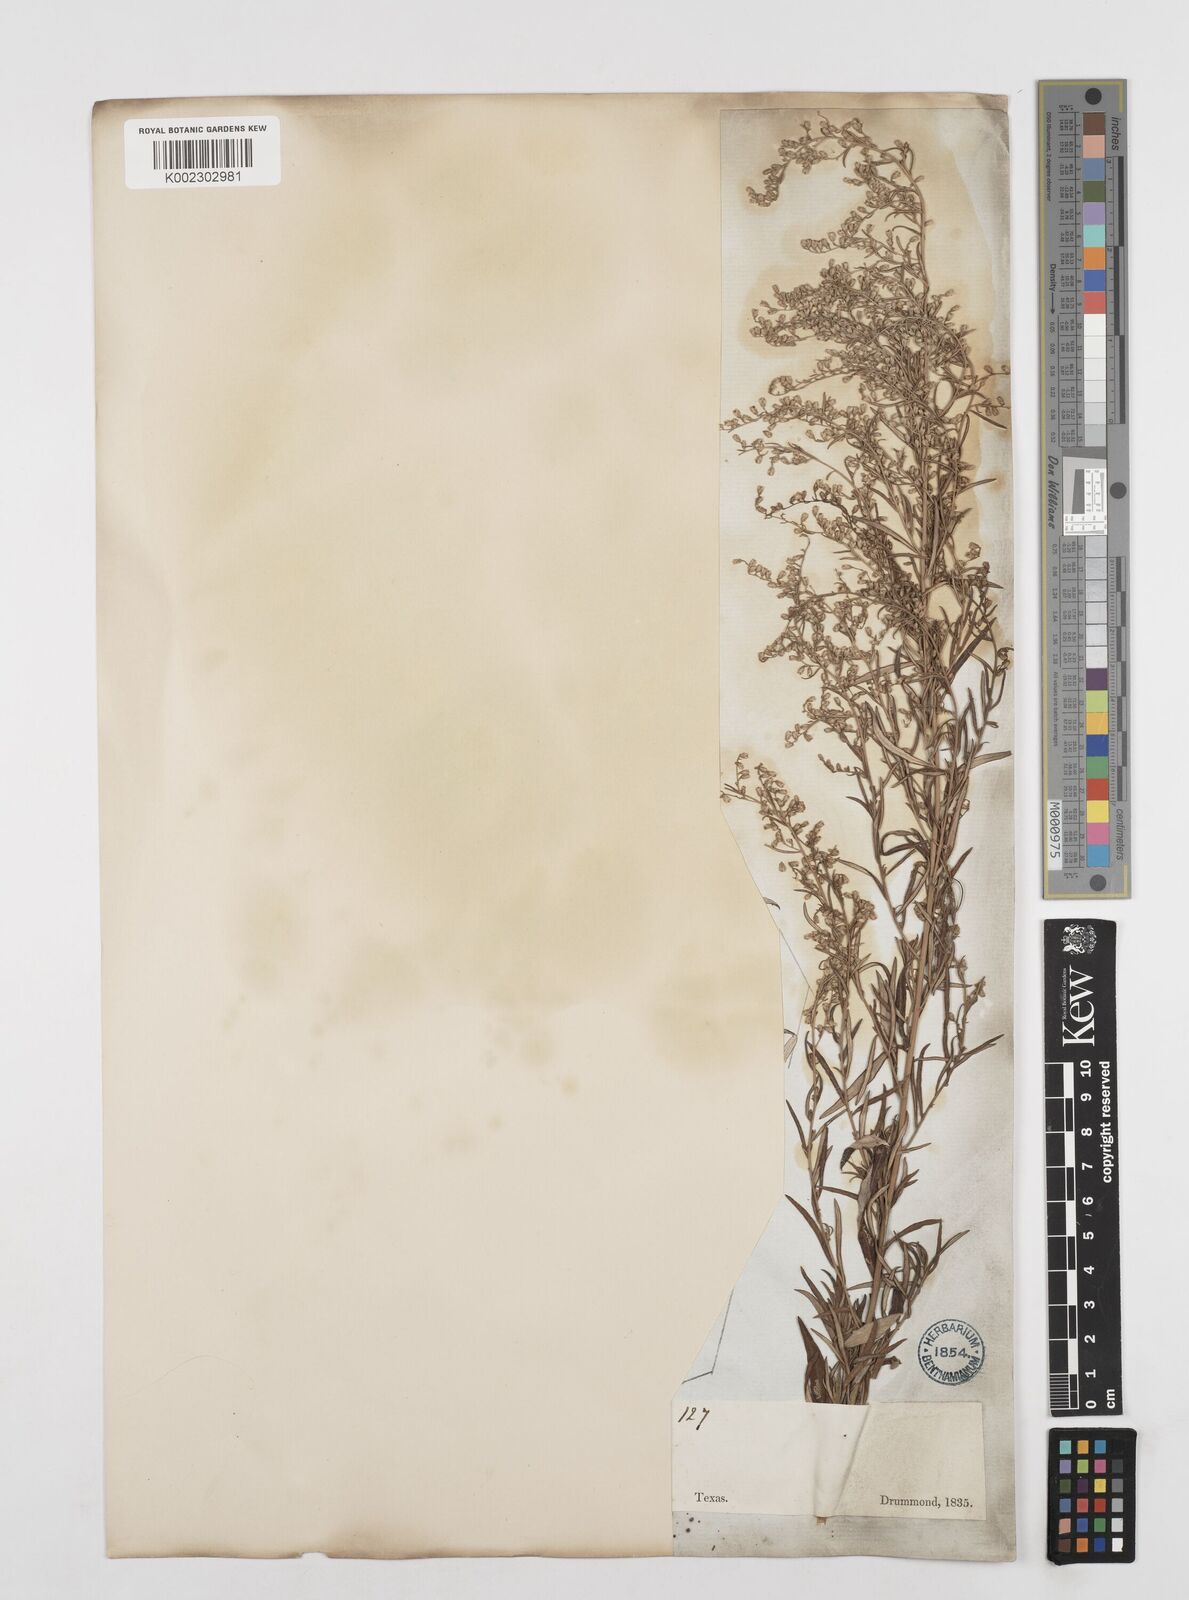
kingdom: Plantae
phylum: Tracheophyta
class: Magnoliopsida
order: Asterales
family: Asteraceae
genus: Artemisia
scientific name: Artemisia ludoviciana
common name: Western mugwort
